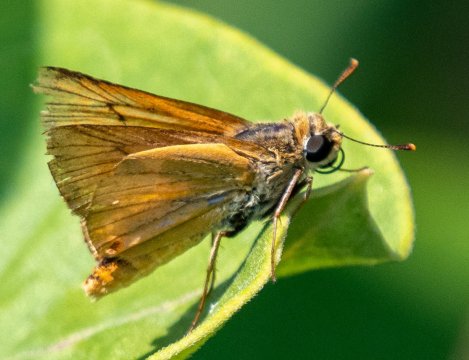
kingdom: Animalia
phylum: Arthropoda
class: Insecta
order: Lepidoptera
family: Hesperiidae
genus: Atrytone
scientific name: Atrytone delaware
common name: Delaware Skipper
